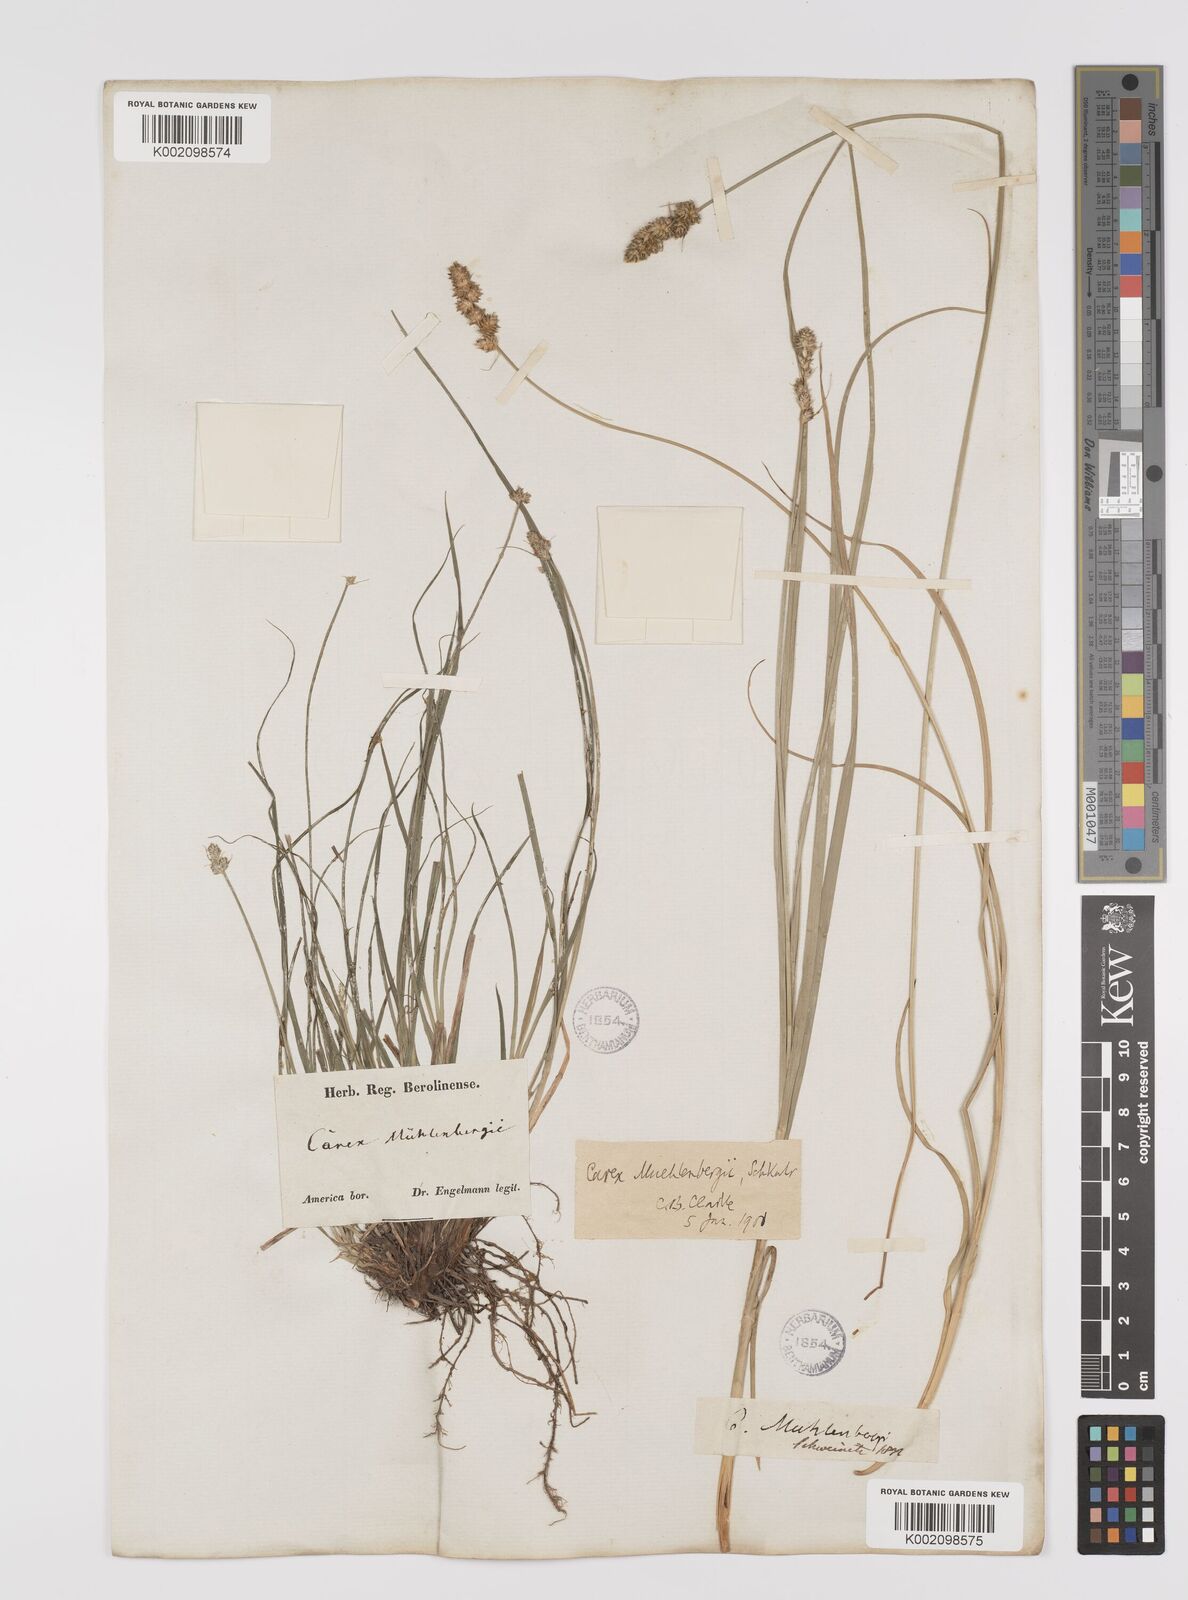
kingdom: Plantae
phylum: Tracheophyta
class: Liliopsida
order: Poales
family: Cyperaceae
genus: Carex
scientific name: Carex vulpinoidea
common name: American fox-sedge
